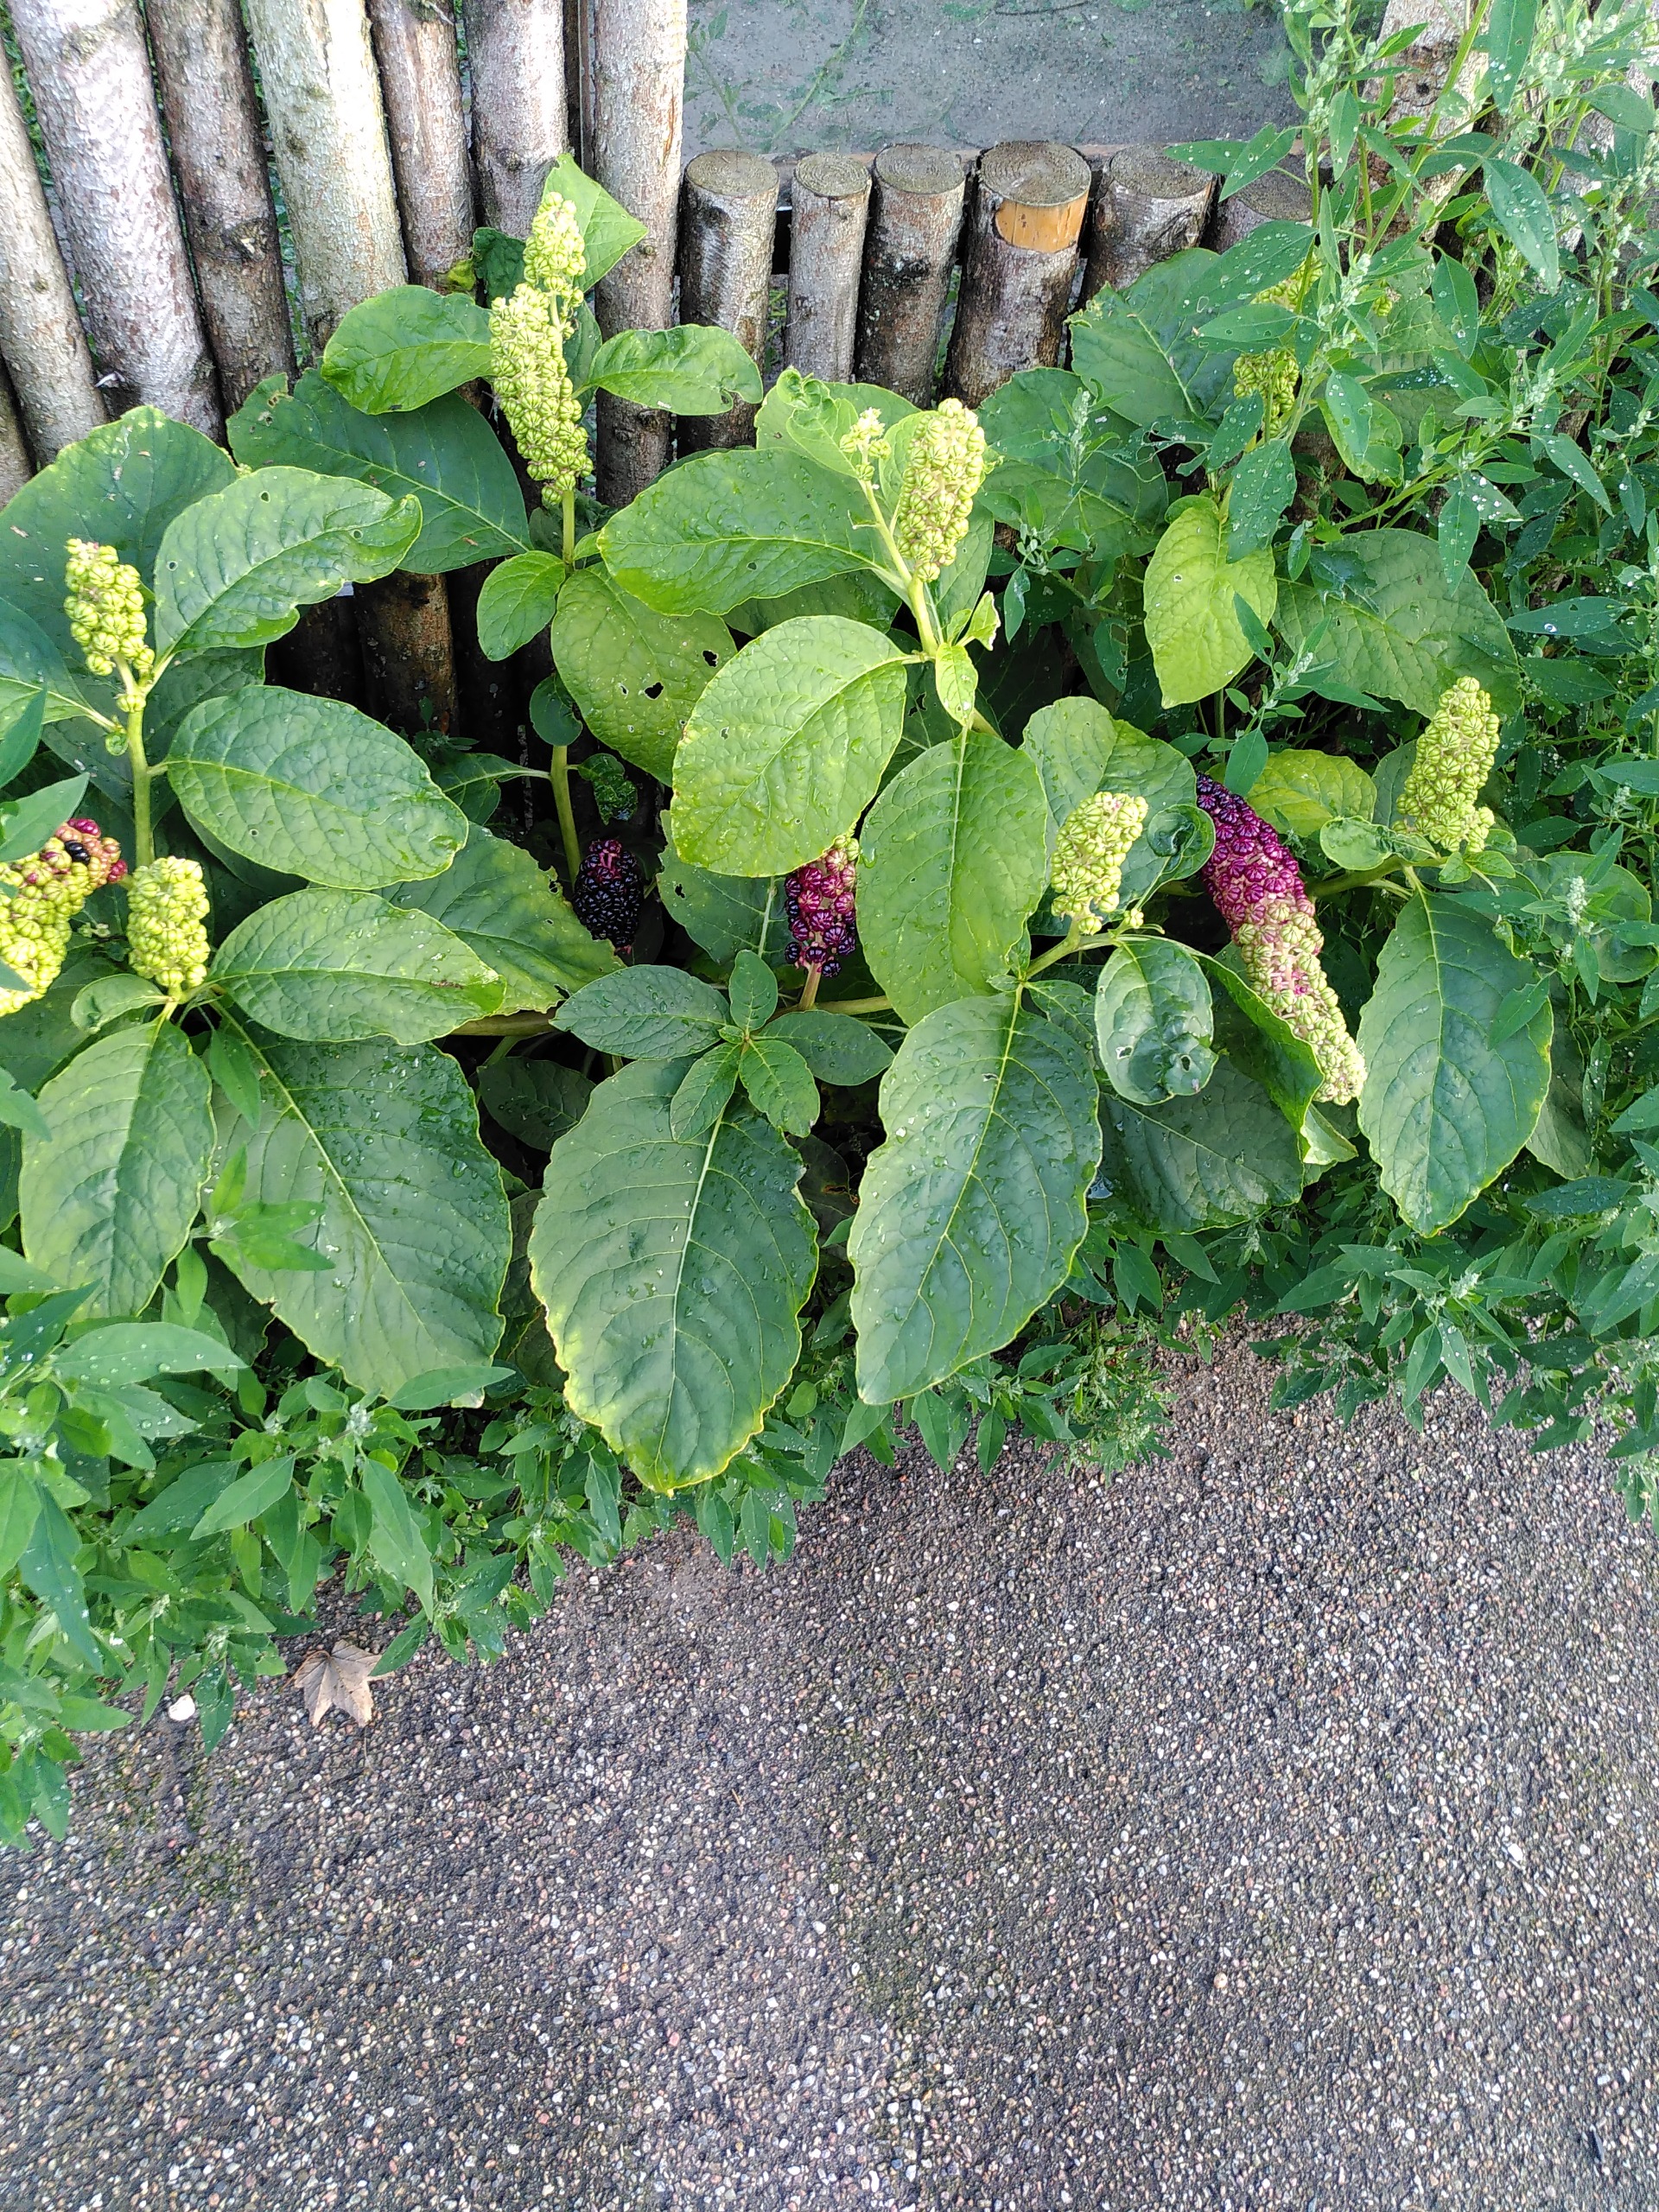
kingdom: Plantae
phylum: Tracheophyta
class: Magnoliopsida
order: Caryophyllales
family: Phytolaccaceae
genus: Phytolacca
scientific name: Phytolacca acinosa
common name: Asiatisk kermesbær
